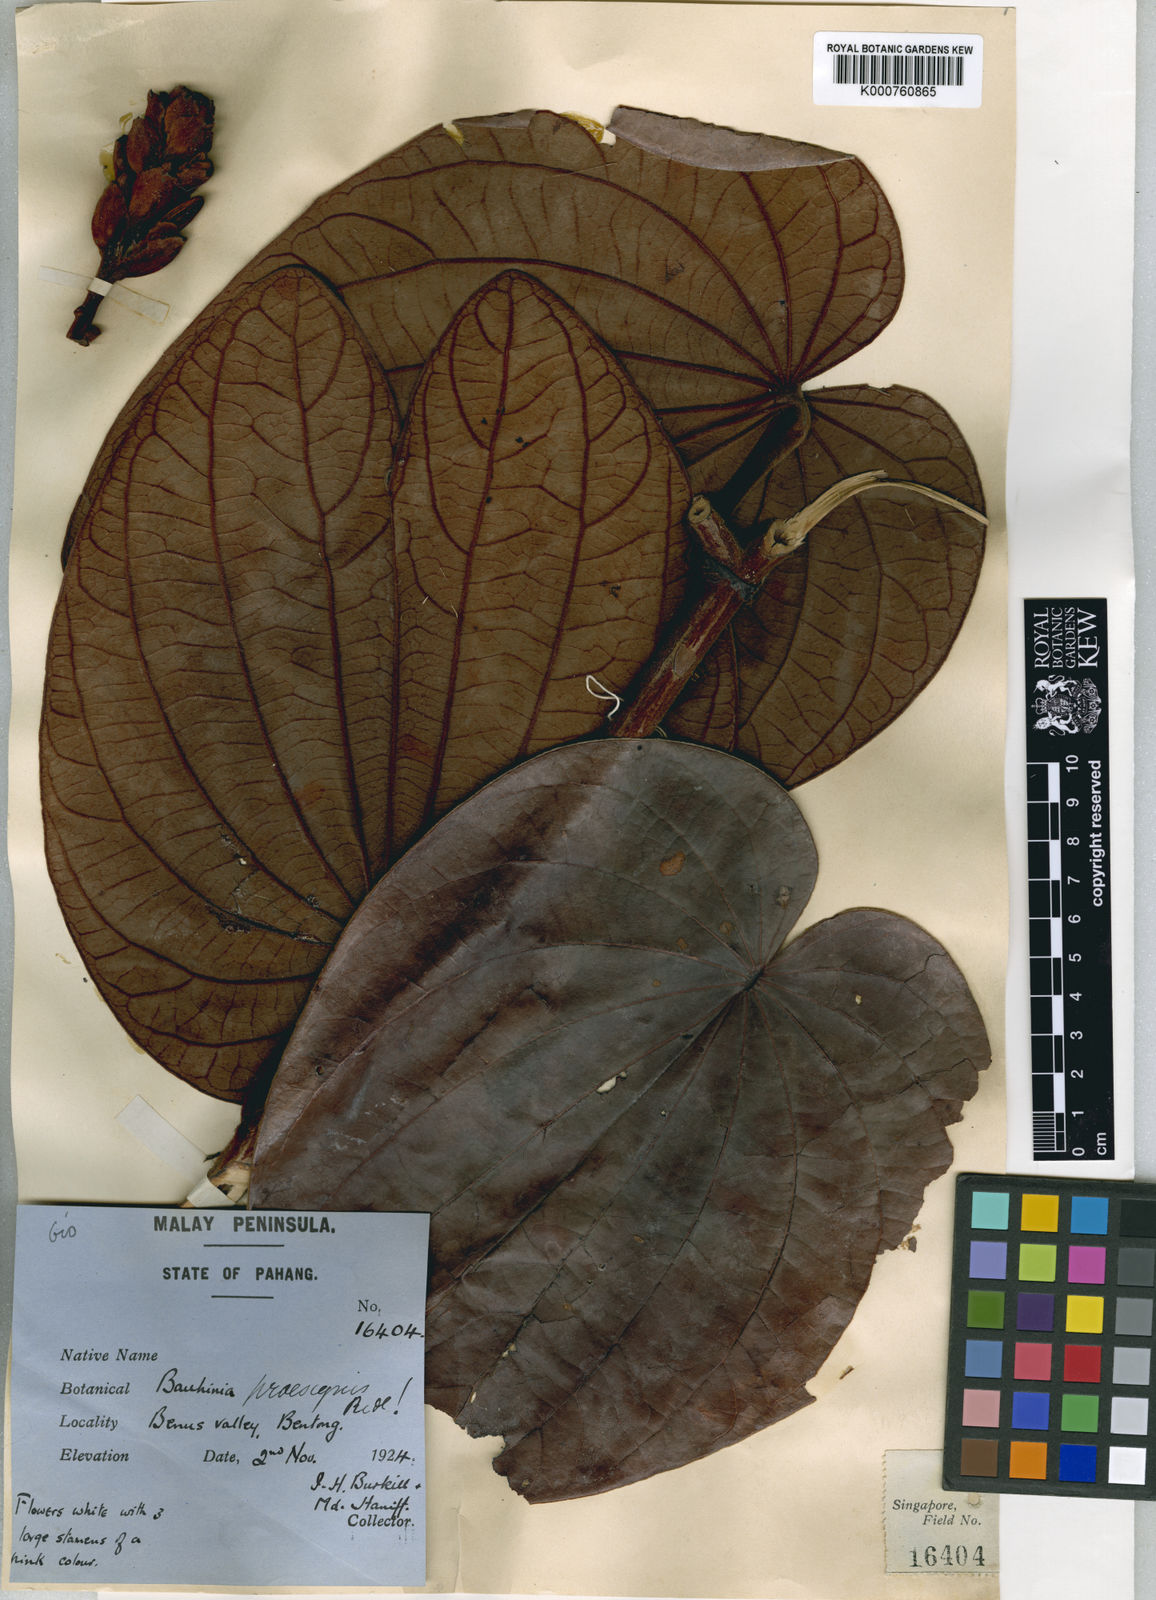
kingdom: Plantae
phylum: Tracheophyta
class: Magnoliopsida
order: Fabales
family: Fabaceae
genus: Phanera
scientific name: Phanera praesignis
